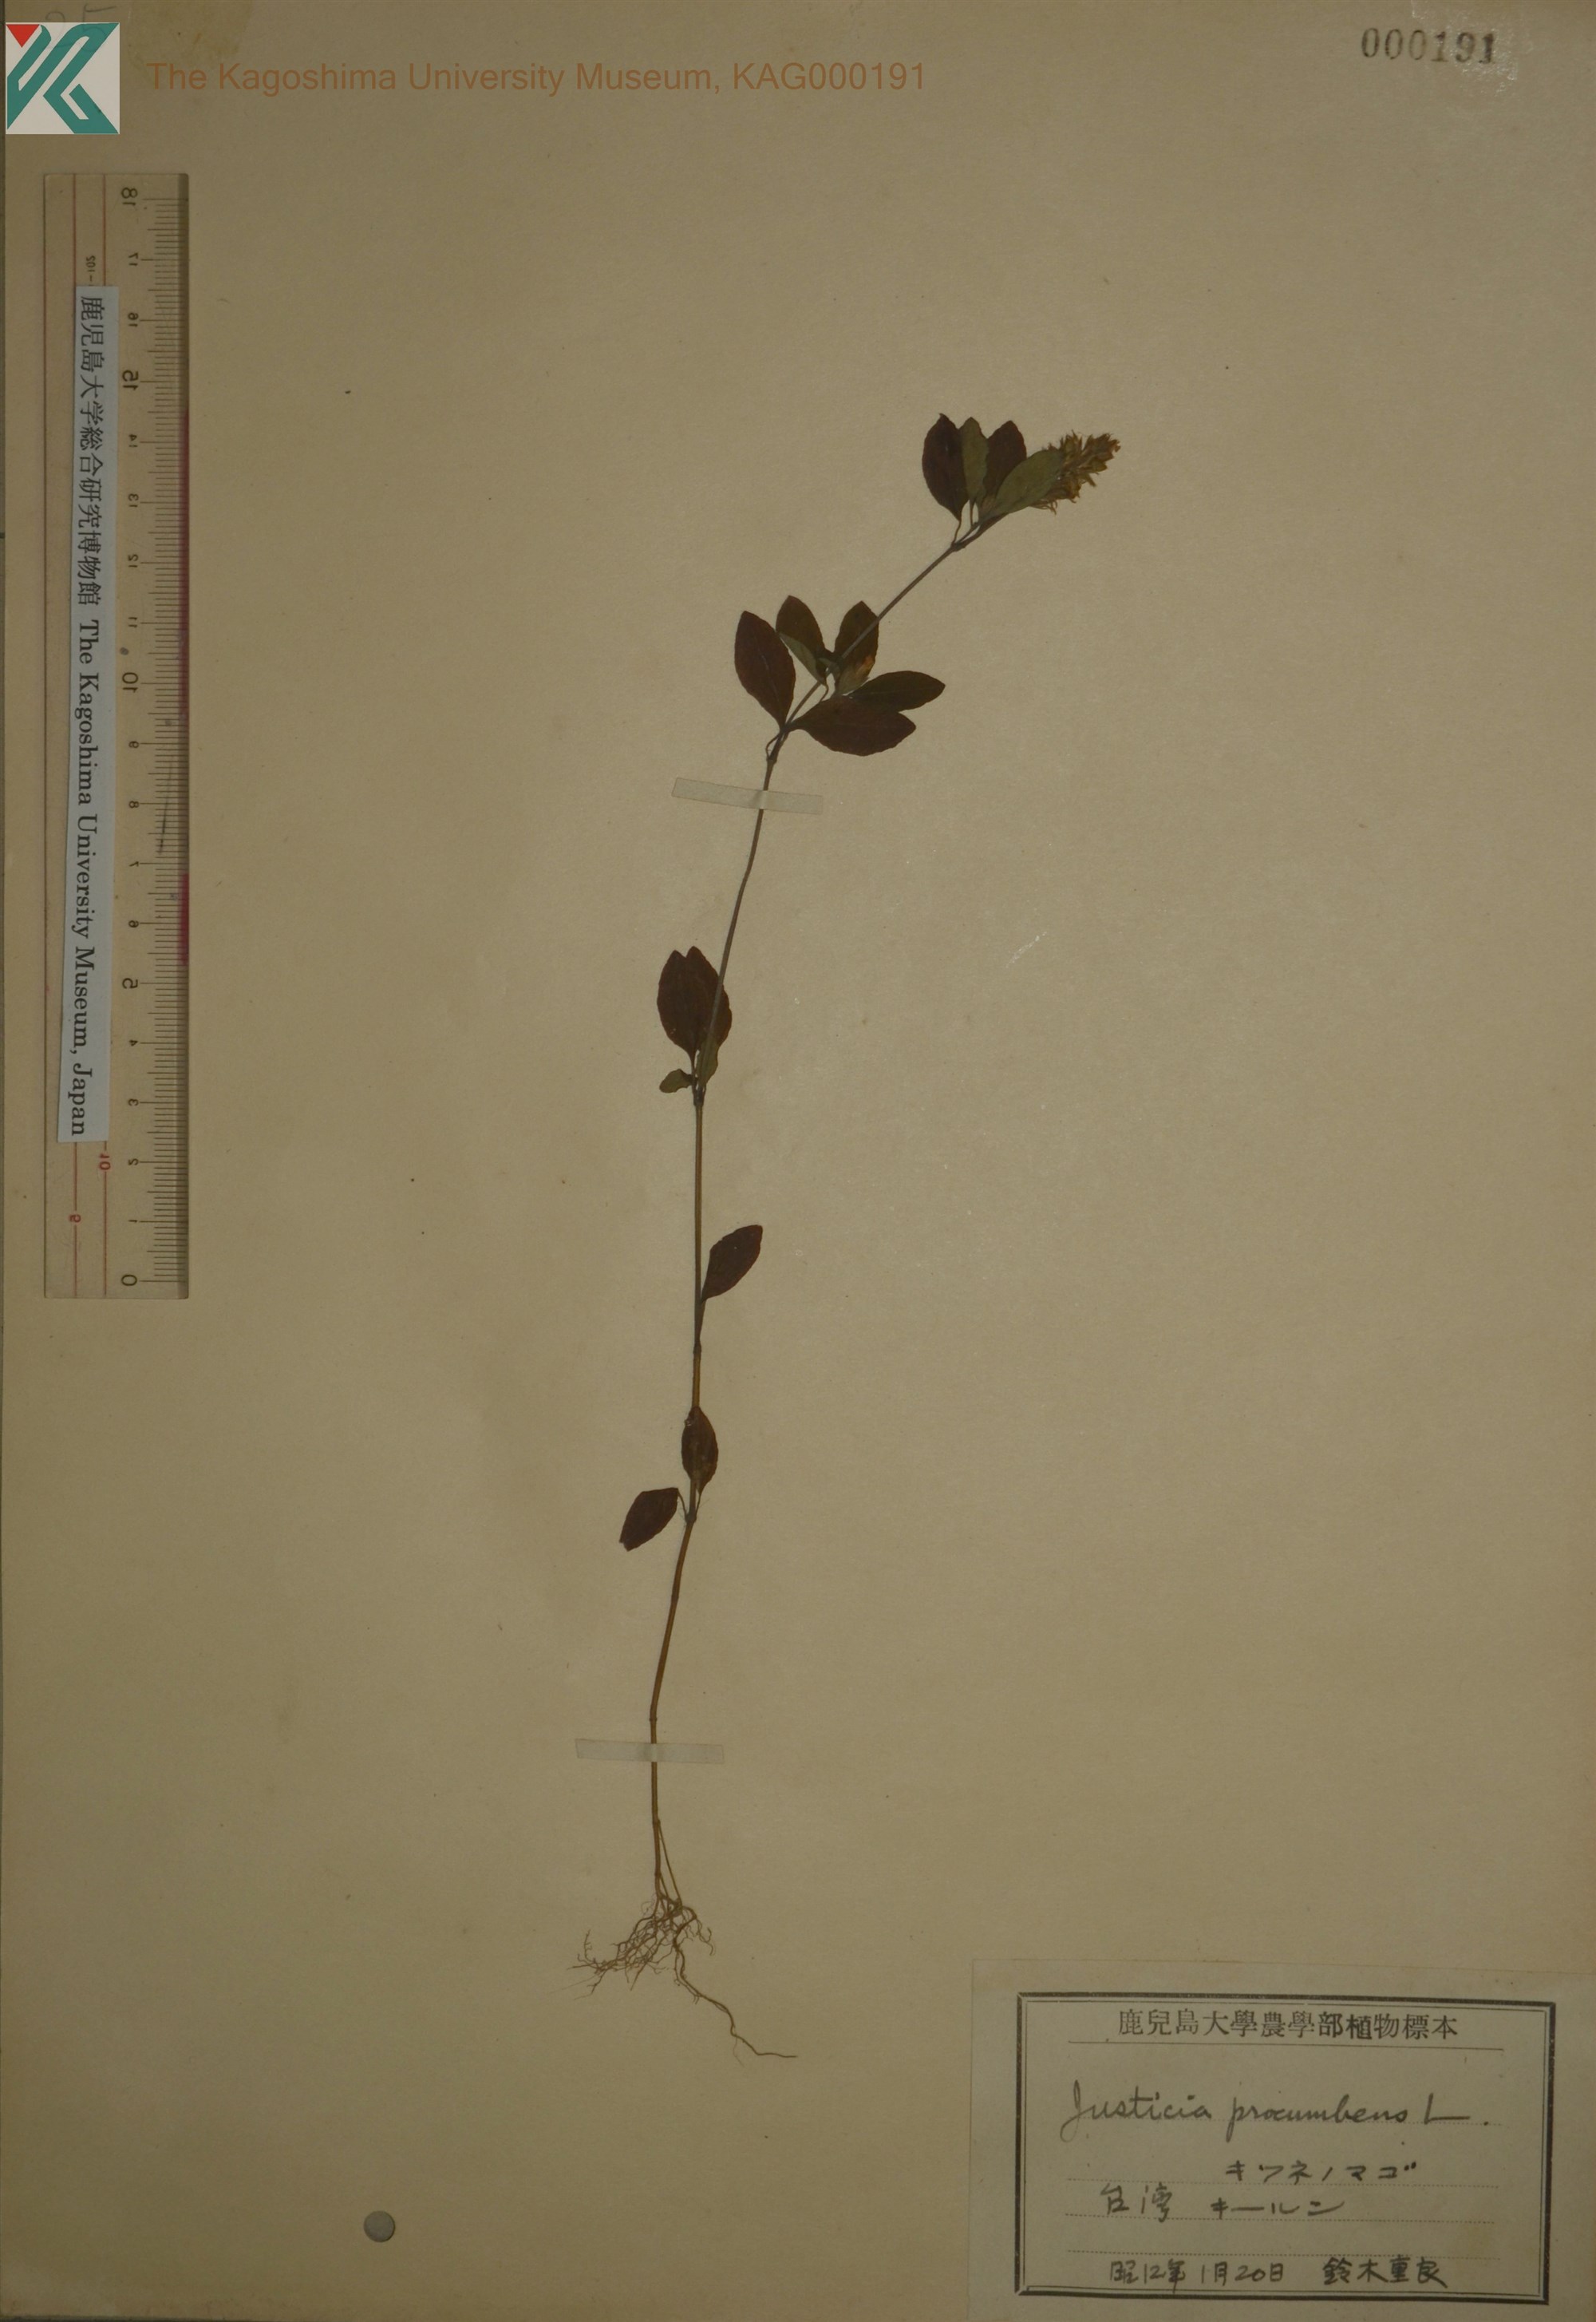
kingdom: Plantae
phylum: Tracheophyta
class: Magnoliopsida
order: Lamiales
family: Acanthaceae
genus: Rostellularia
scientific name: Rostellularia procumbens
